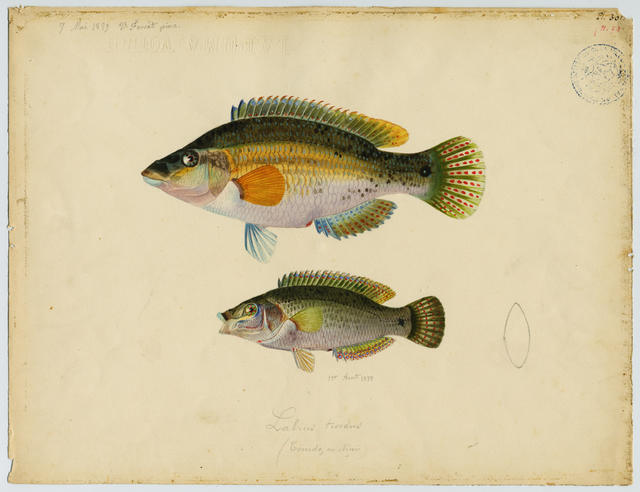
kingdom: Animalia
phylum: Chordata
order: Perciformes
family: Labridae
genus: Labrus
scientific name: Labrus viridis
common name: Green wrasse
